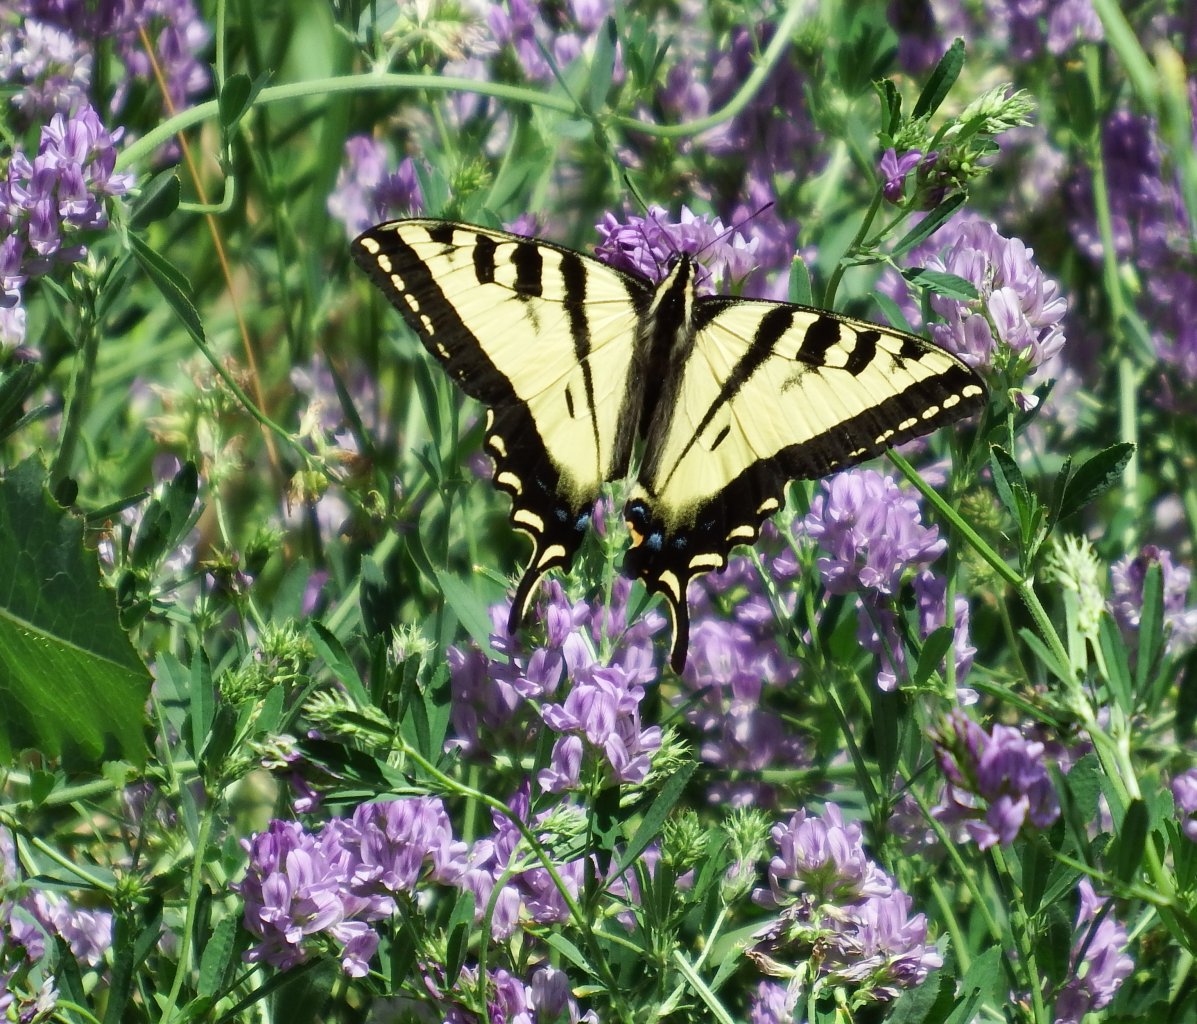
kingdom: Animalia
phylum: Arthropoda
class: Insecta
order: Lepidoptera
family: Papilionidae
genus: Pterourus
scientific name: Pterourus rutulus
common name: Western Tiger Swallowtail
